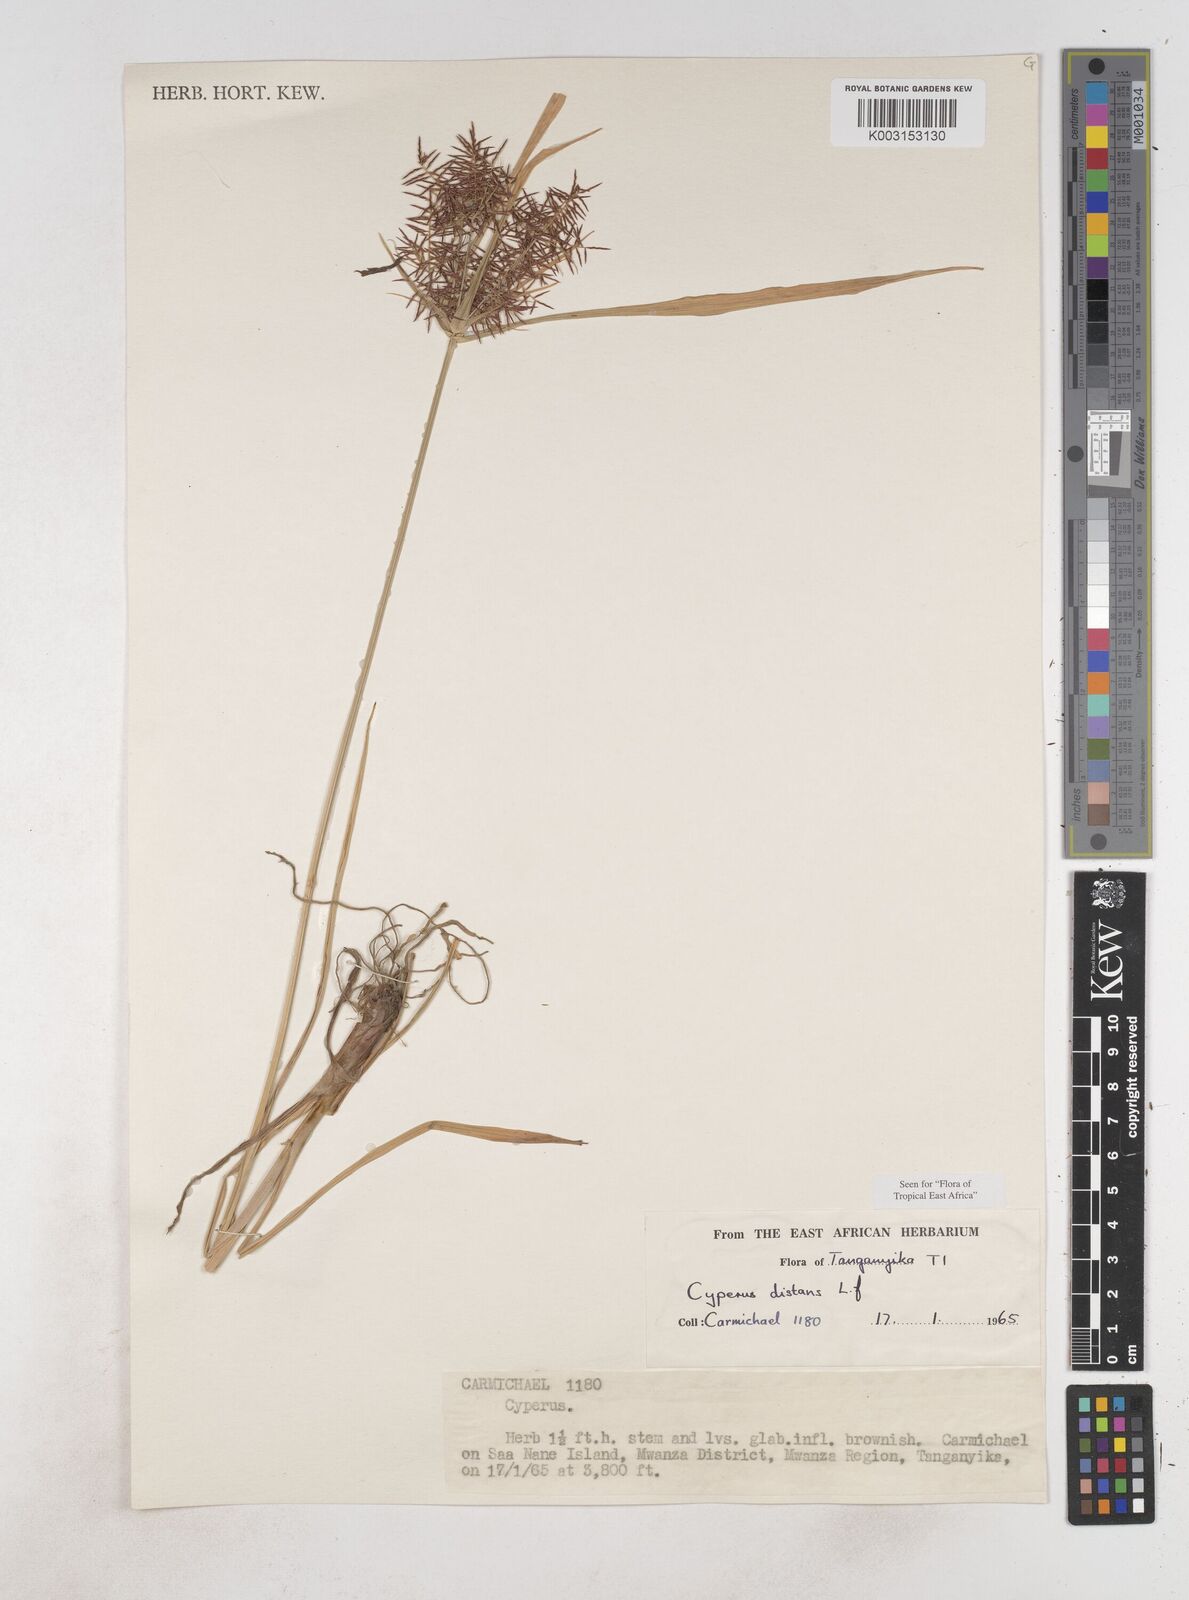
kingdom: Plantae
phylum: Tracheophyta
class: Liliopsida
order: Poales
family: Cyperaceae
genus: Cyperus
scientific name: Cyperus distans
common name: Slender cyperus
